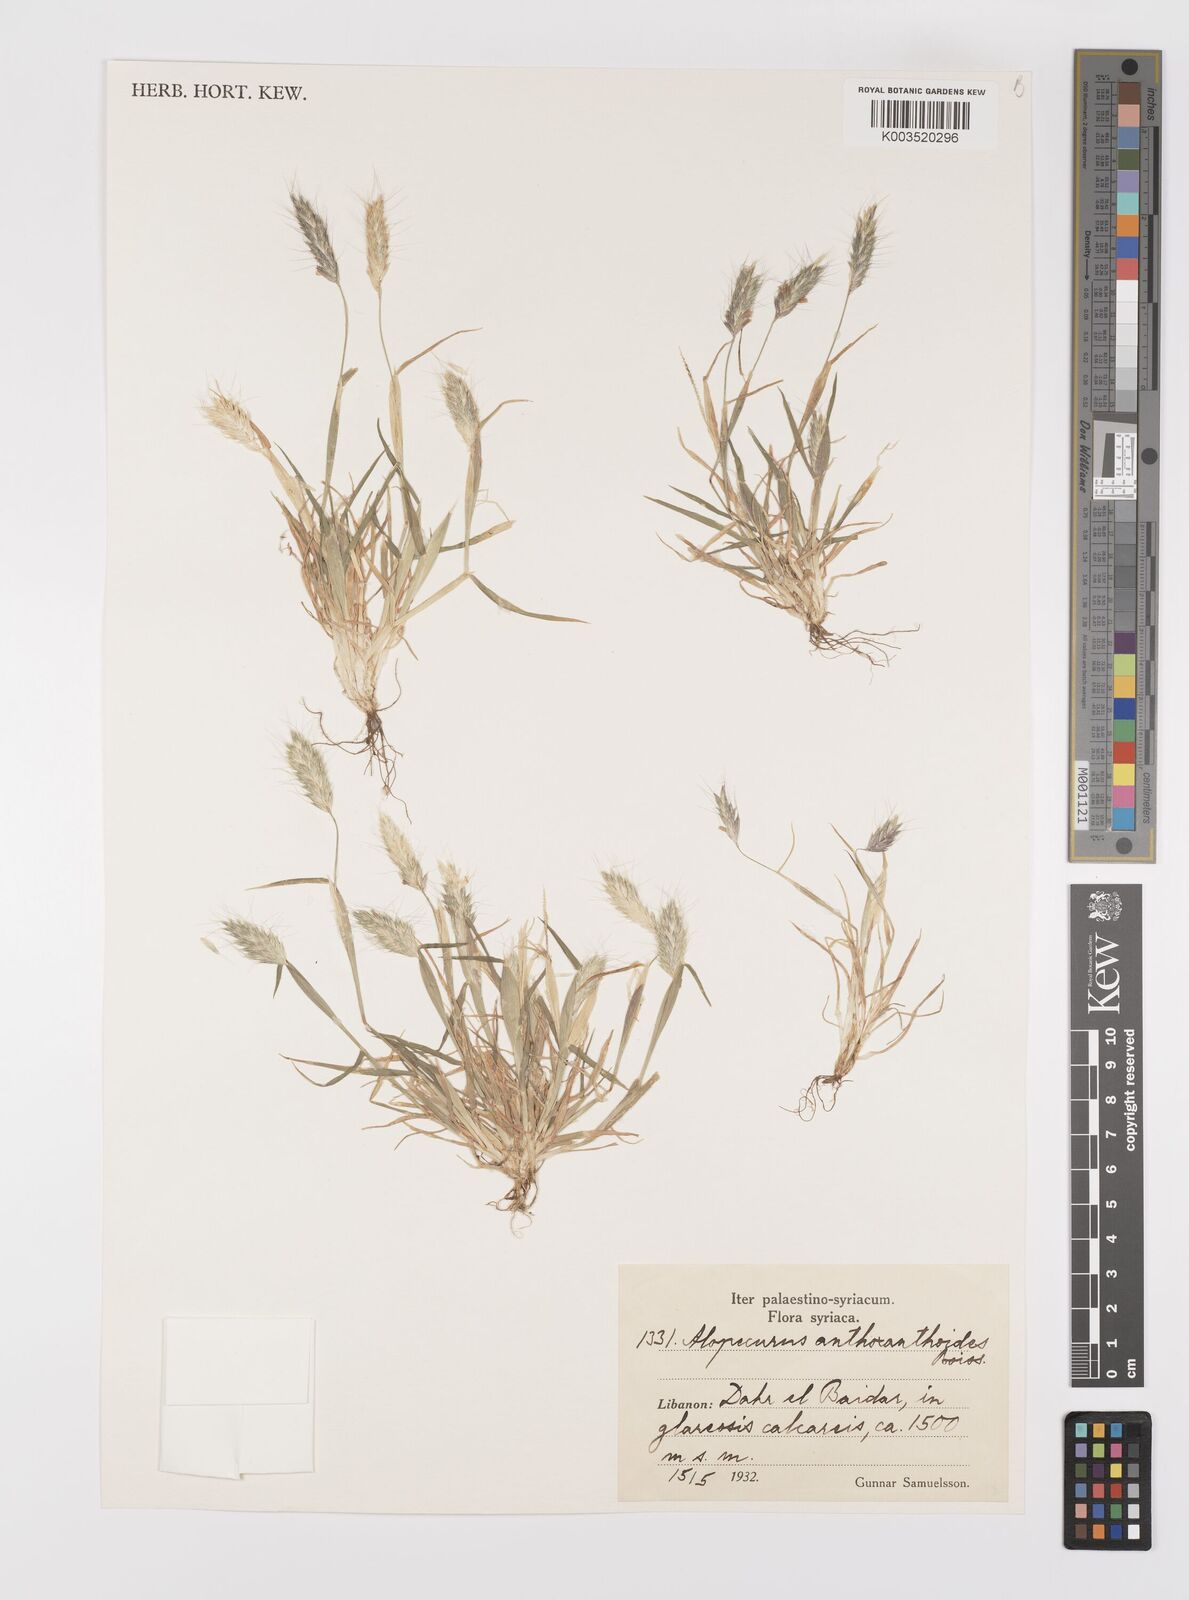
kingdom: Plantae
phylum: Tracheophyta
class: Liliopsida
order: Poales
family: Poaceae
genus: Alopecurus
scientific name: Alopecurus utriculatus
